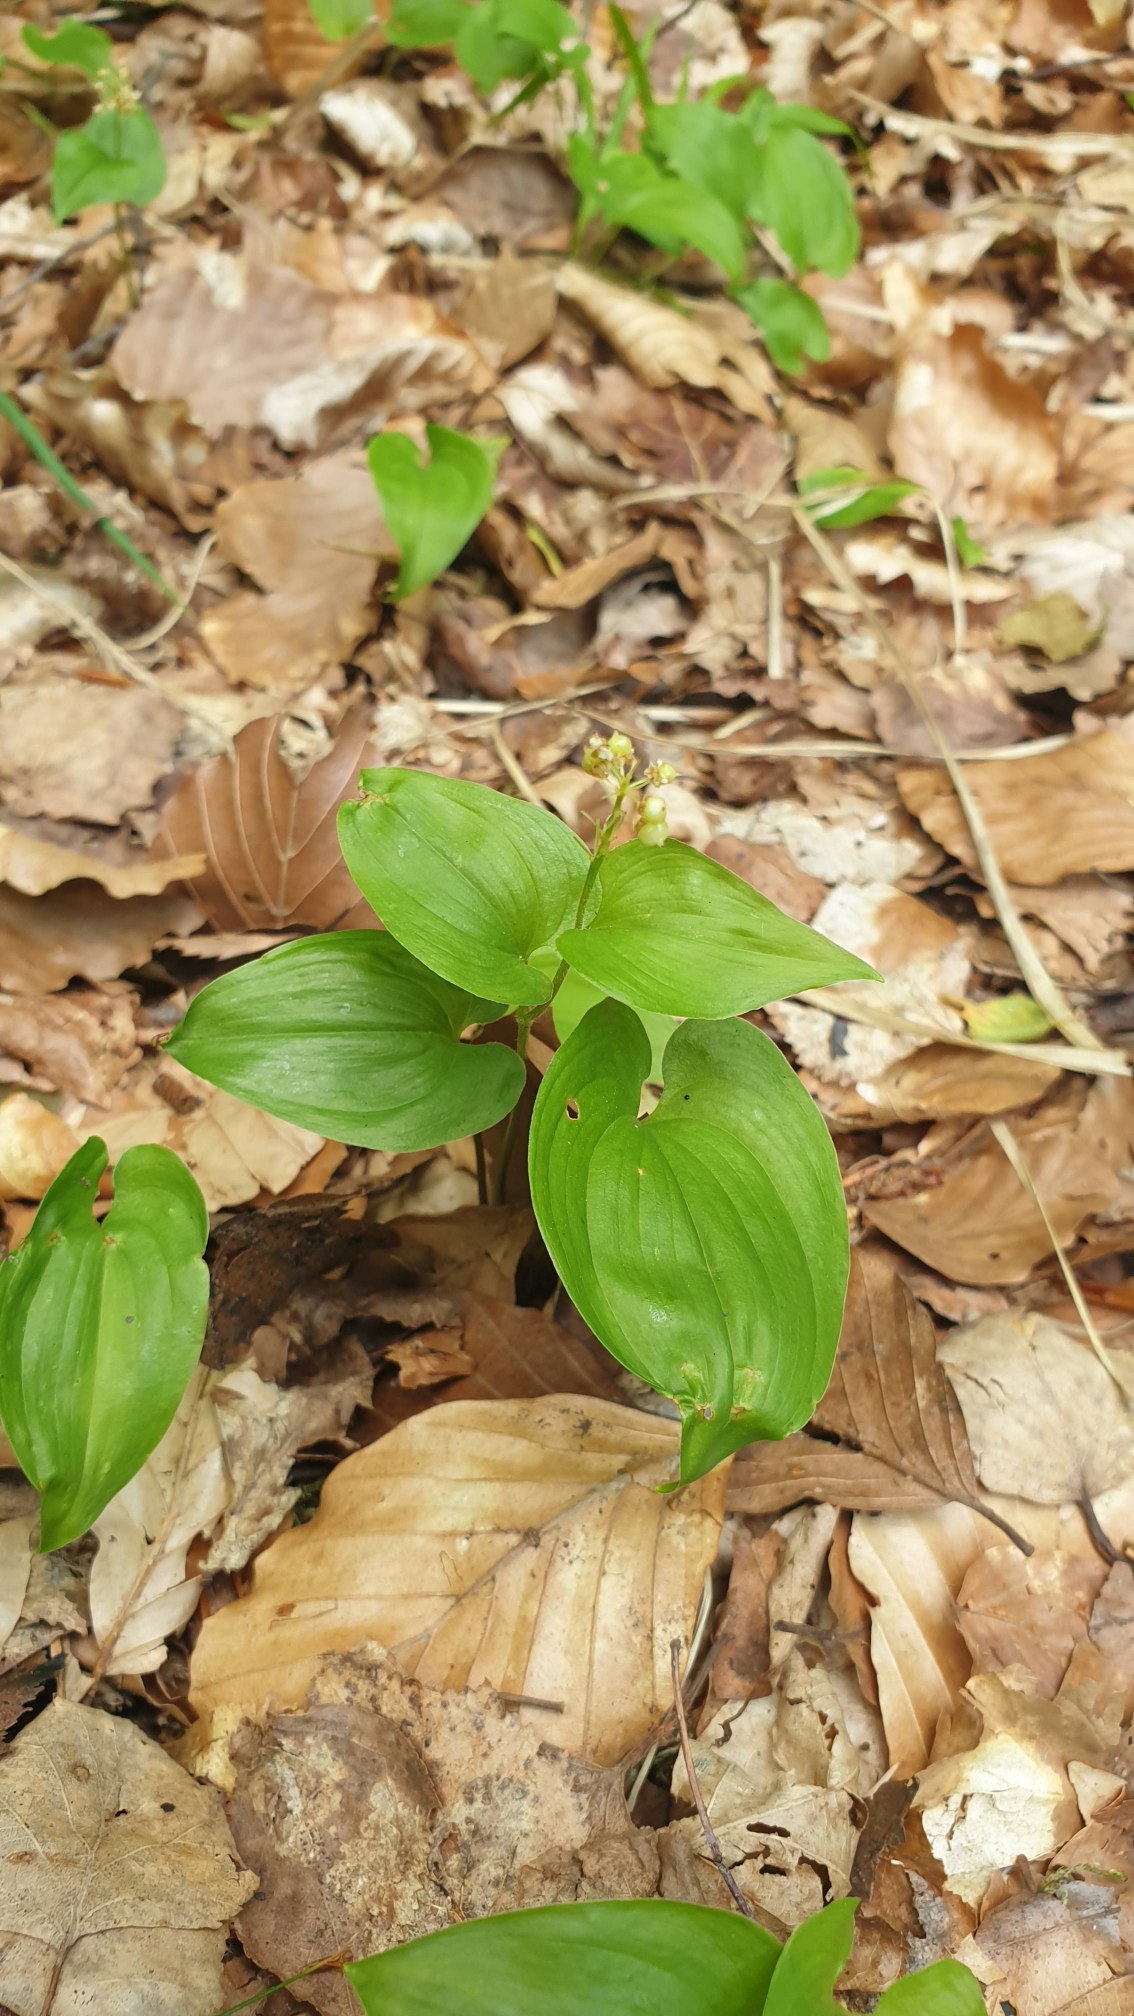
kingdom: Plantae
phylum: Tracheophyta
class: Liliopsida
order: Asparagales
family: Asparagaceae
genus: Maianthemum
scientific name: Maianthemum bifolium
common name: Majblomst
